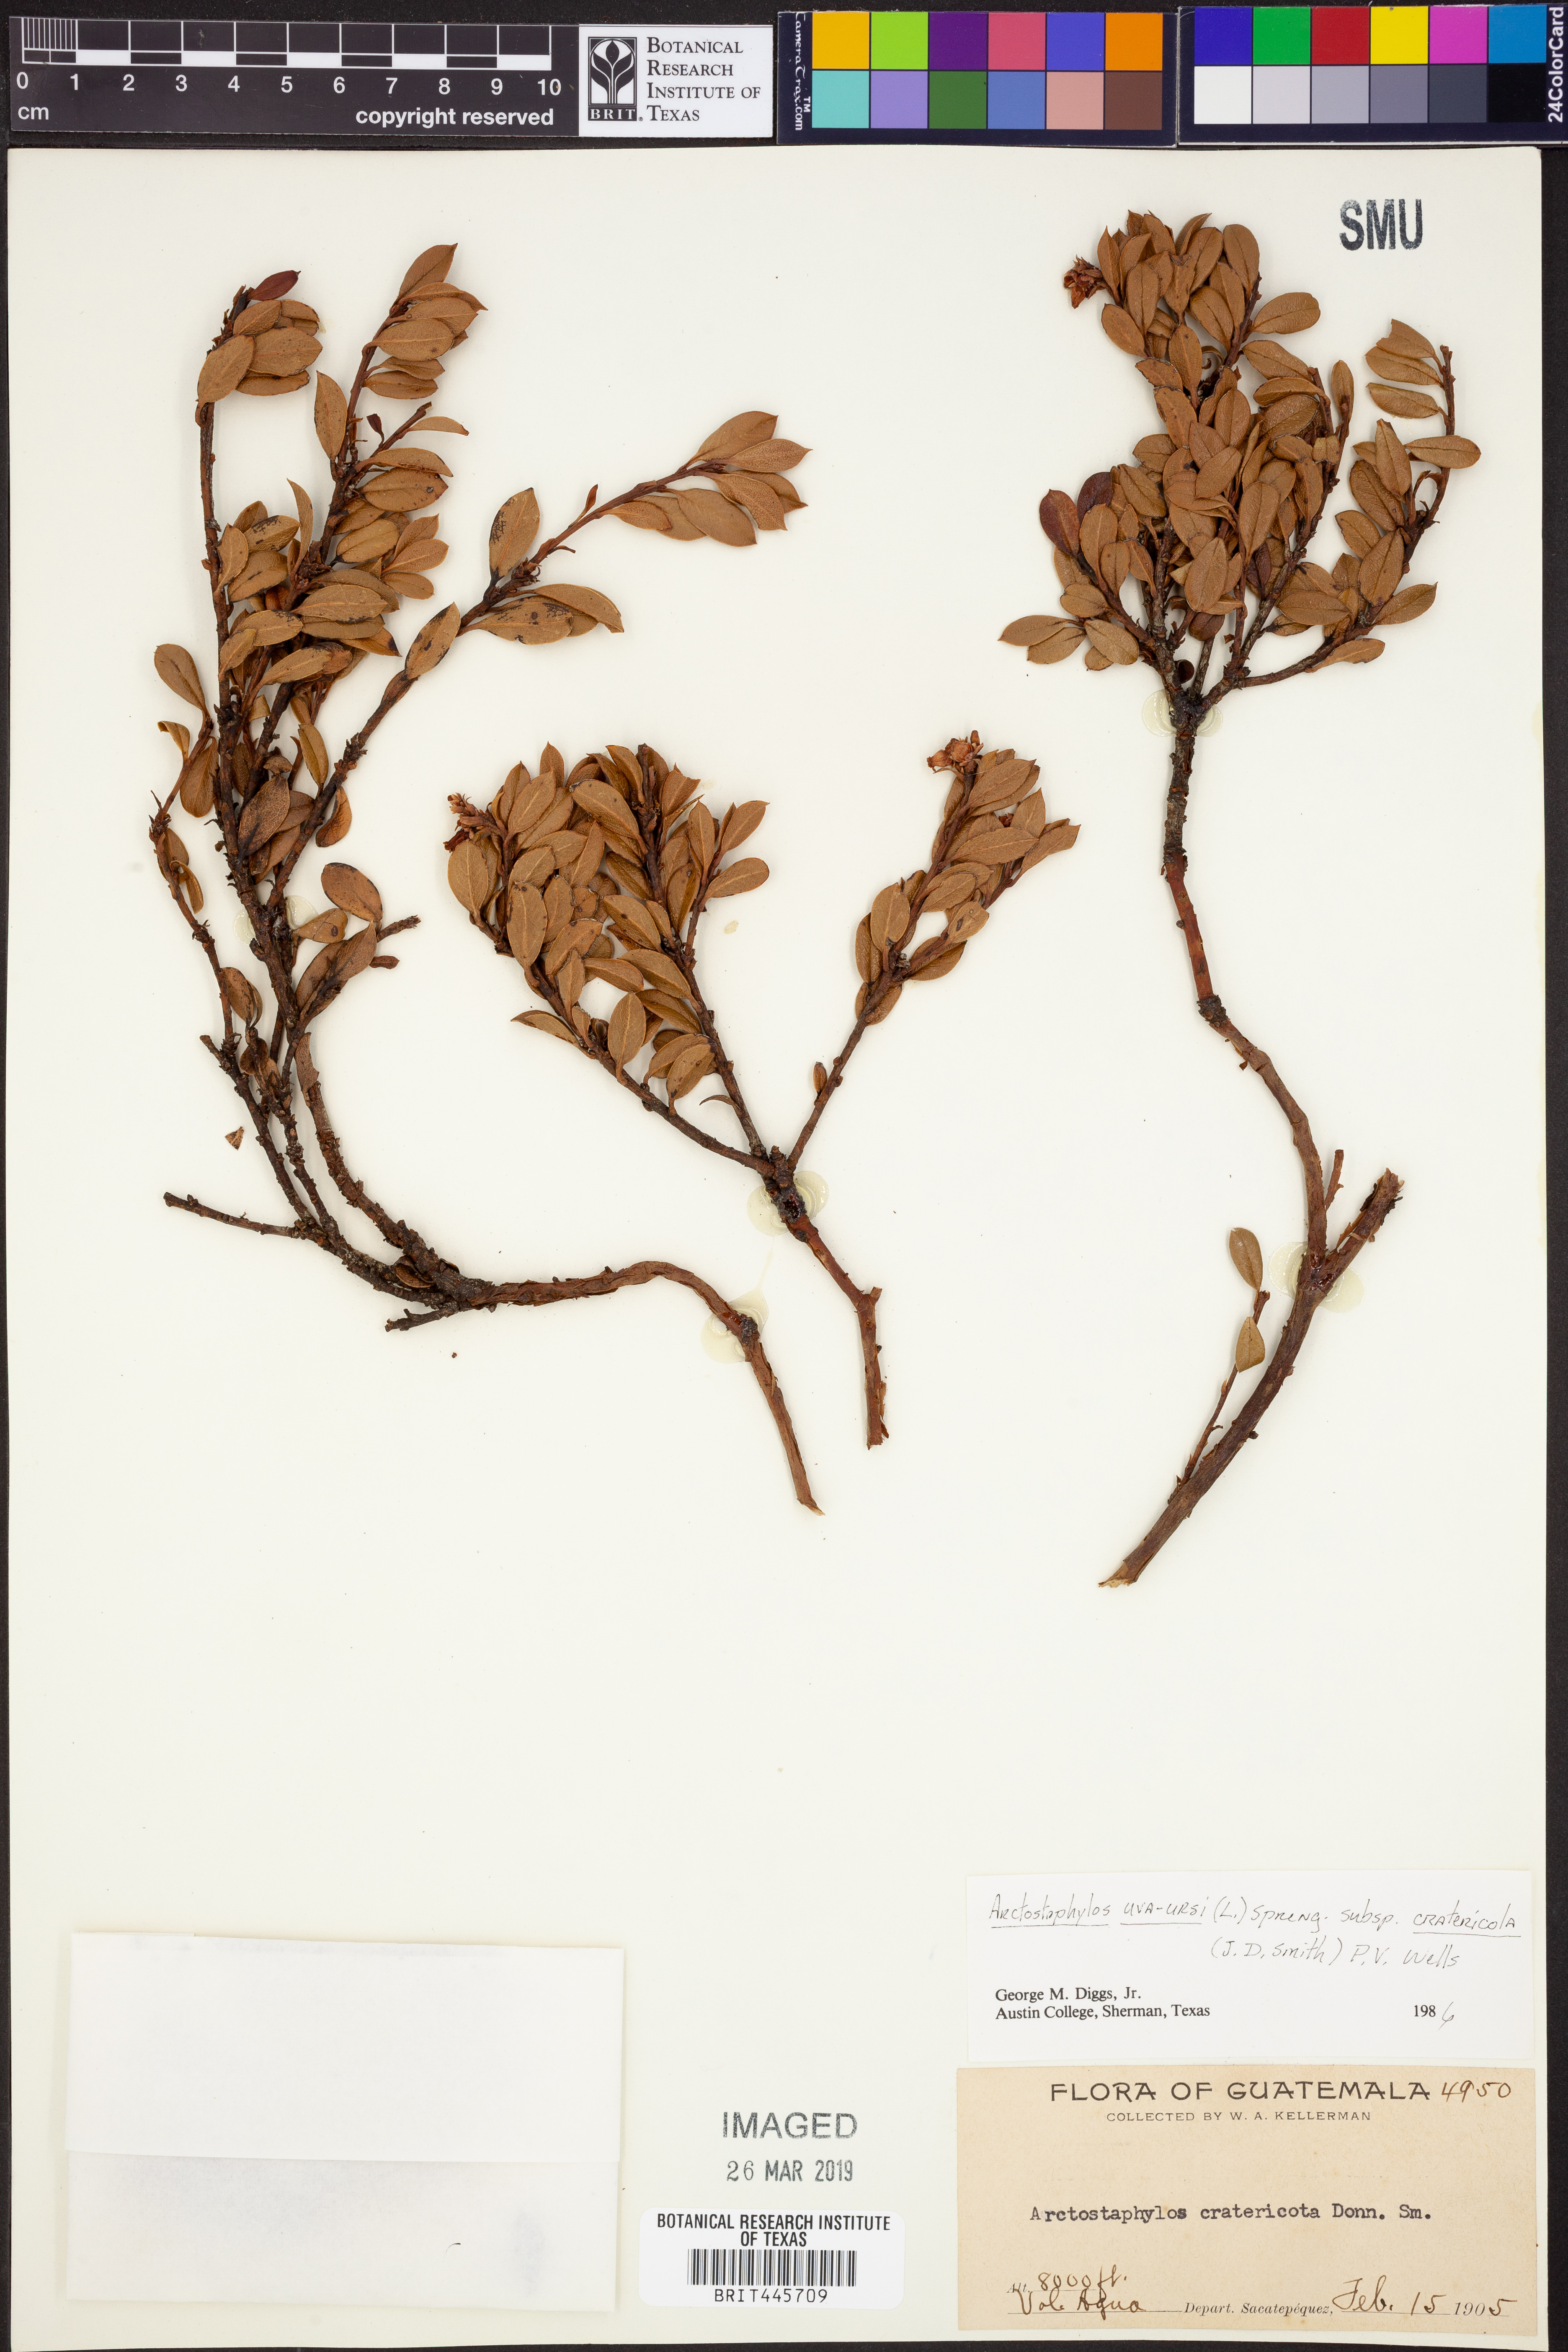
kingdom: Plantae
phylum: Tracheophyta
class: Magnoliopsida
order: Ericales
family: Ericaceae
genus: Arctostaphylos
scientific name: Arctostaphylos cratericola
